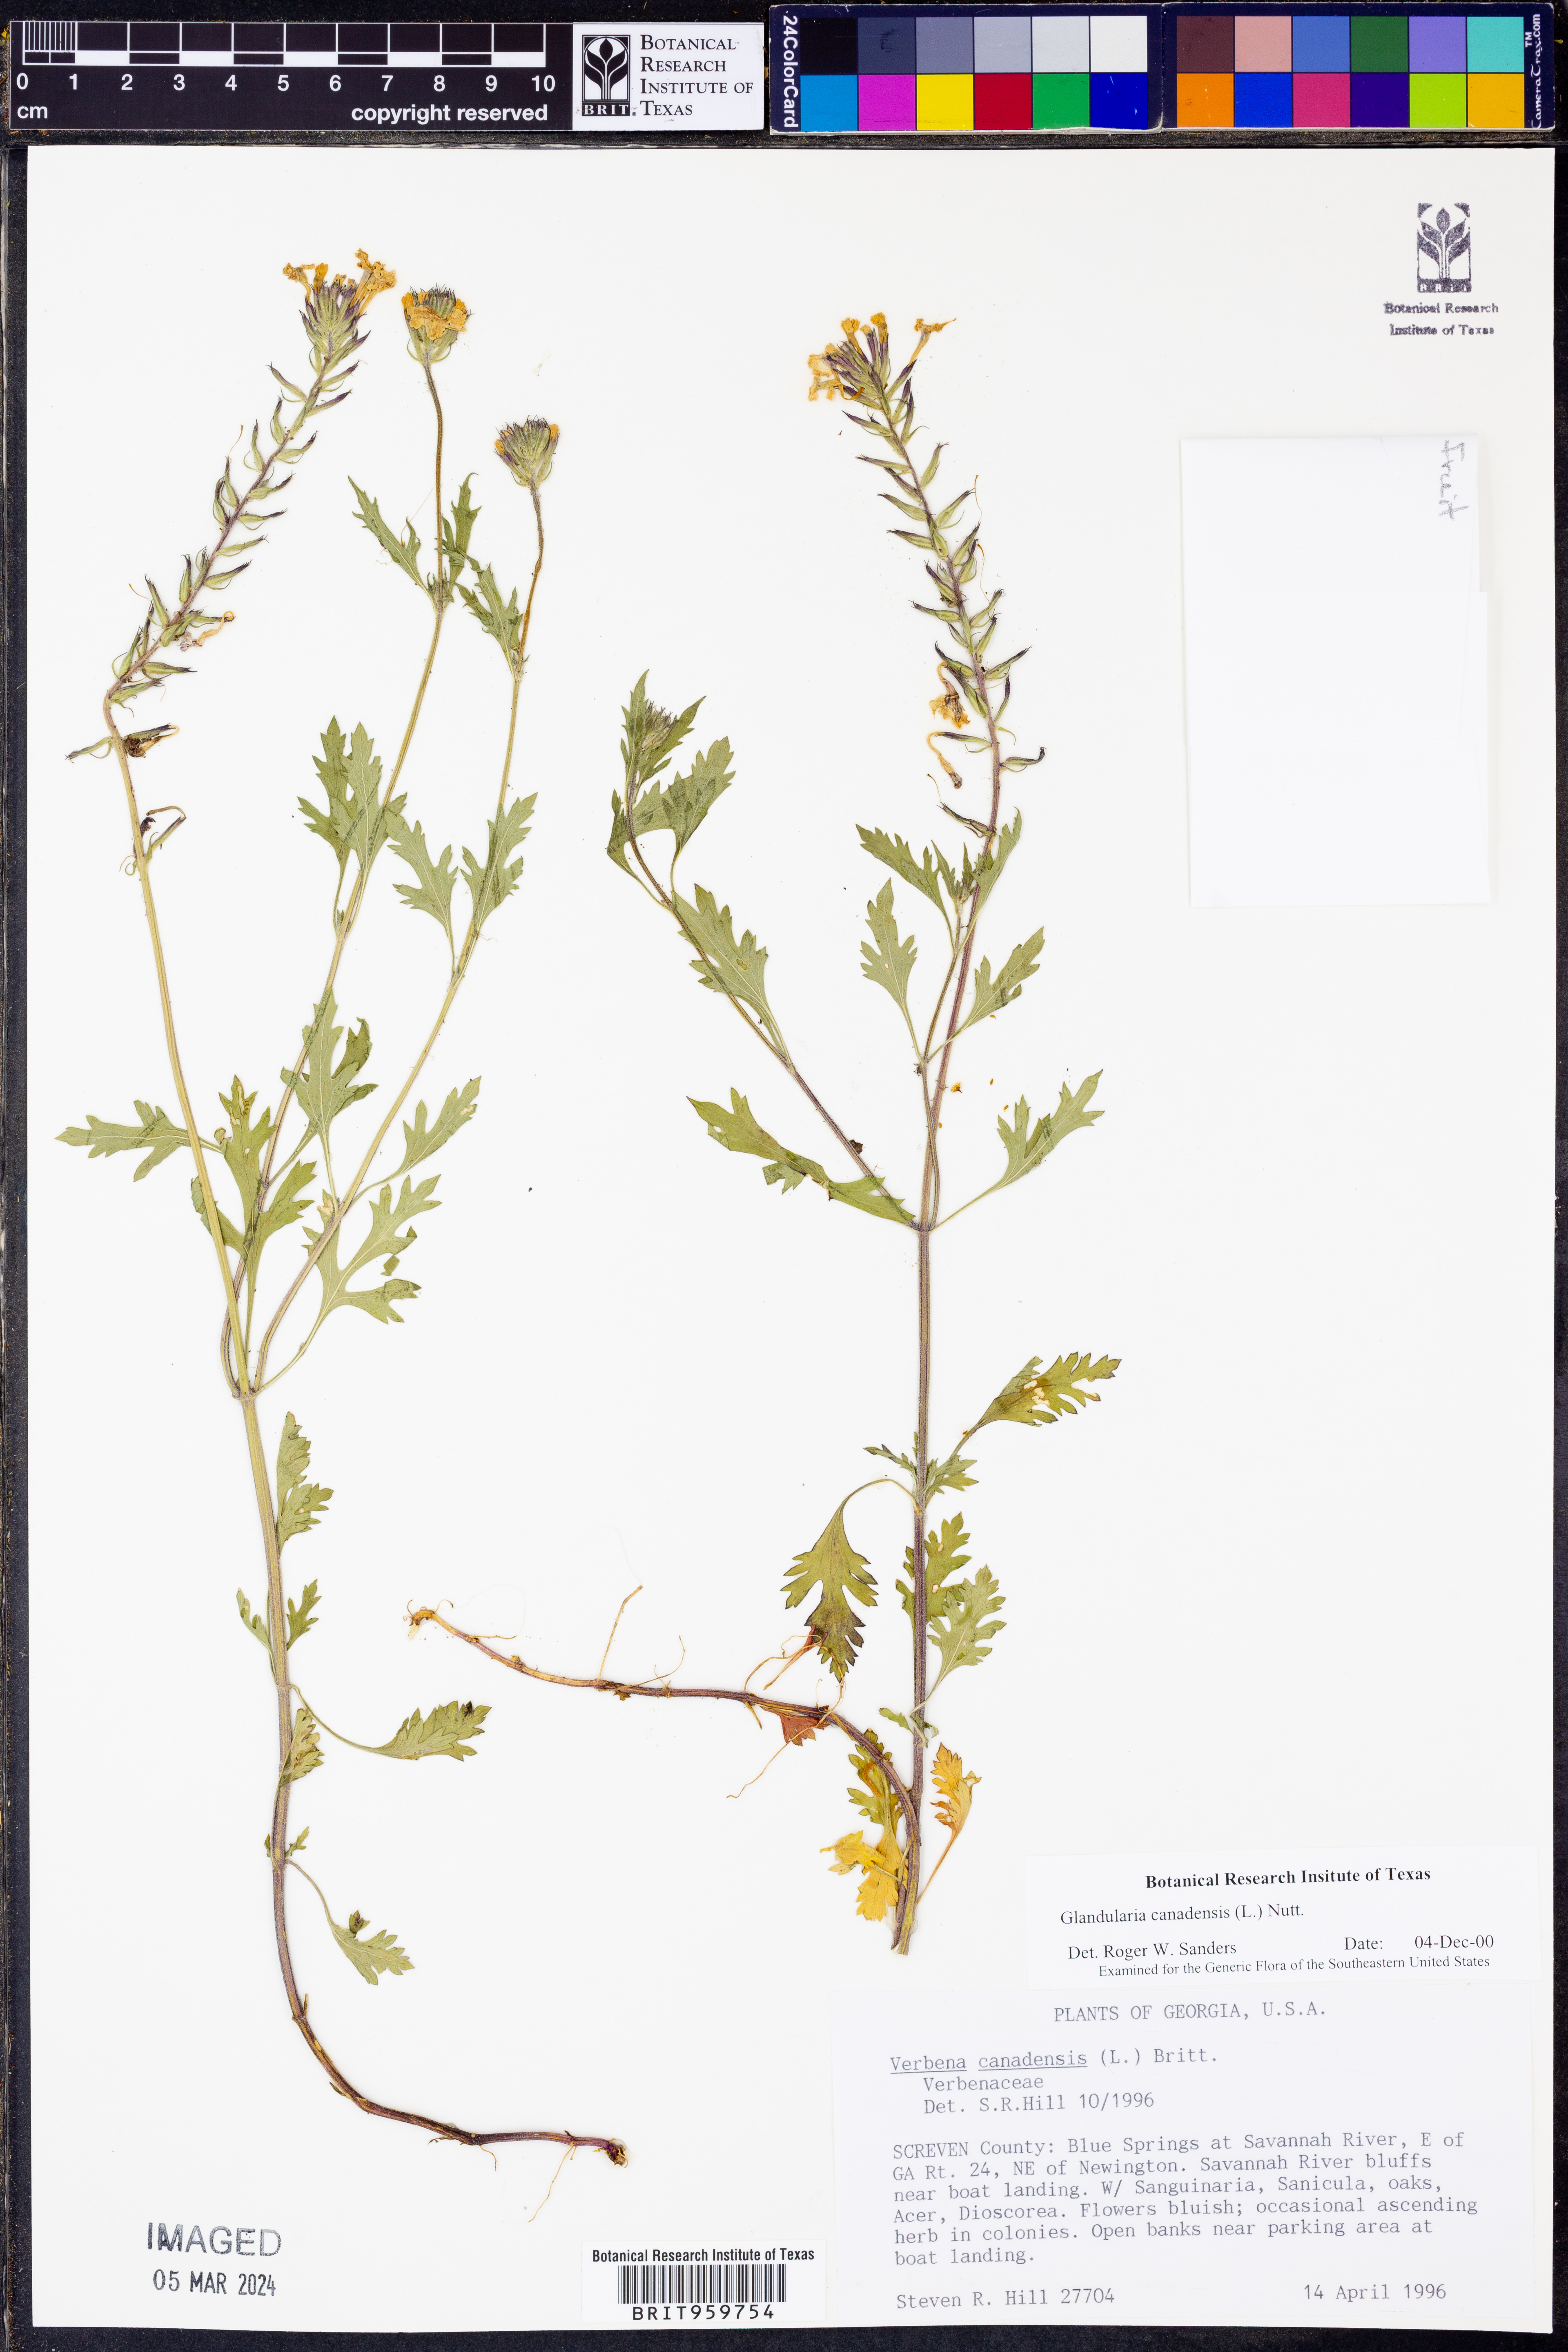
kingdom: Plantae
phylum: Tracheophyta
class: Magnoliopsida
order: Lamiales
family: Verbenaceae
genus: Verbena
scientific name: Verbena canadensis
